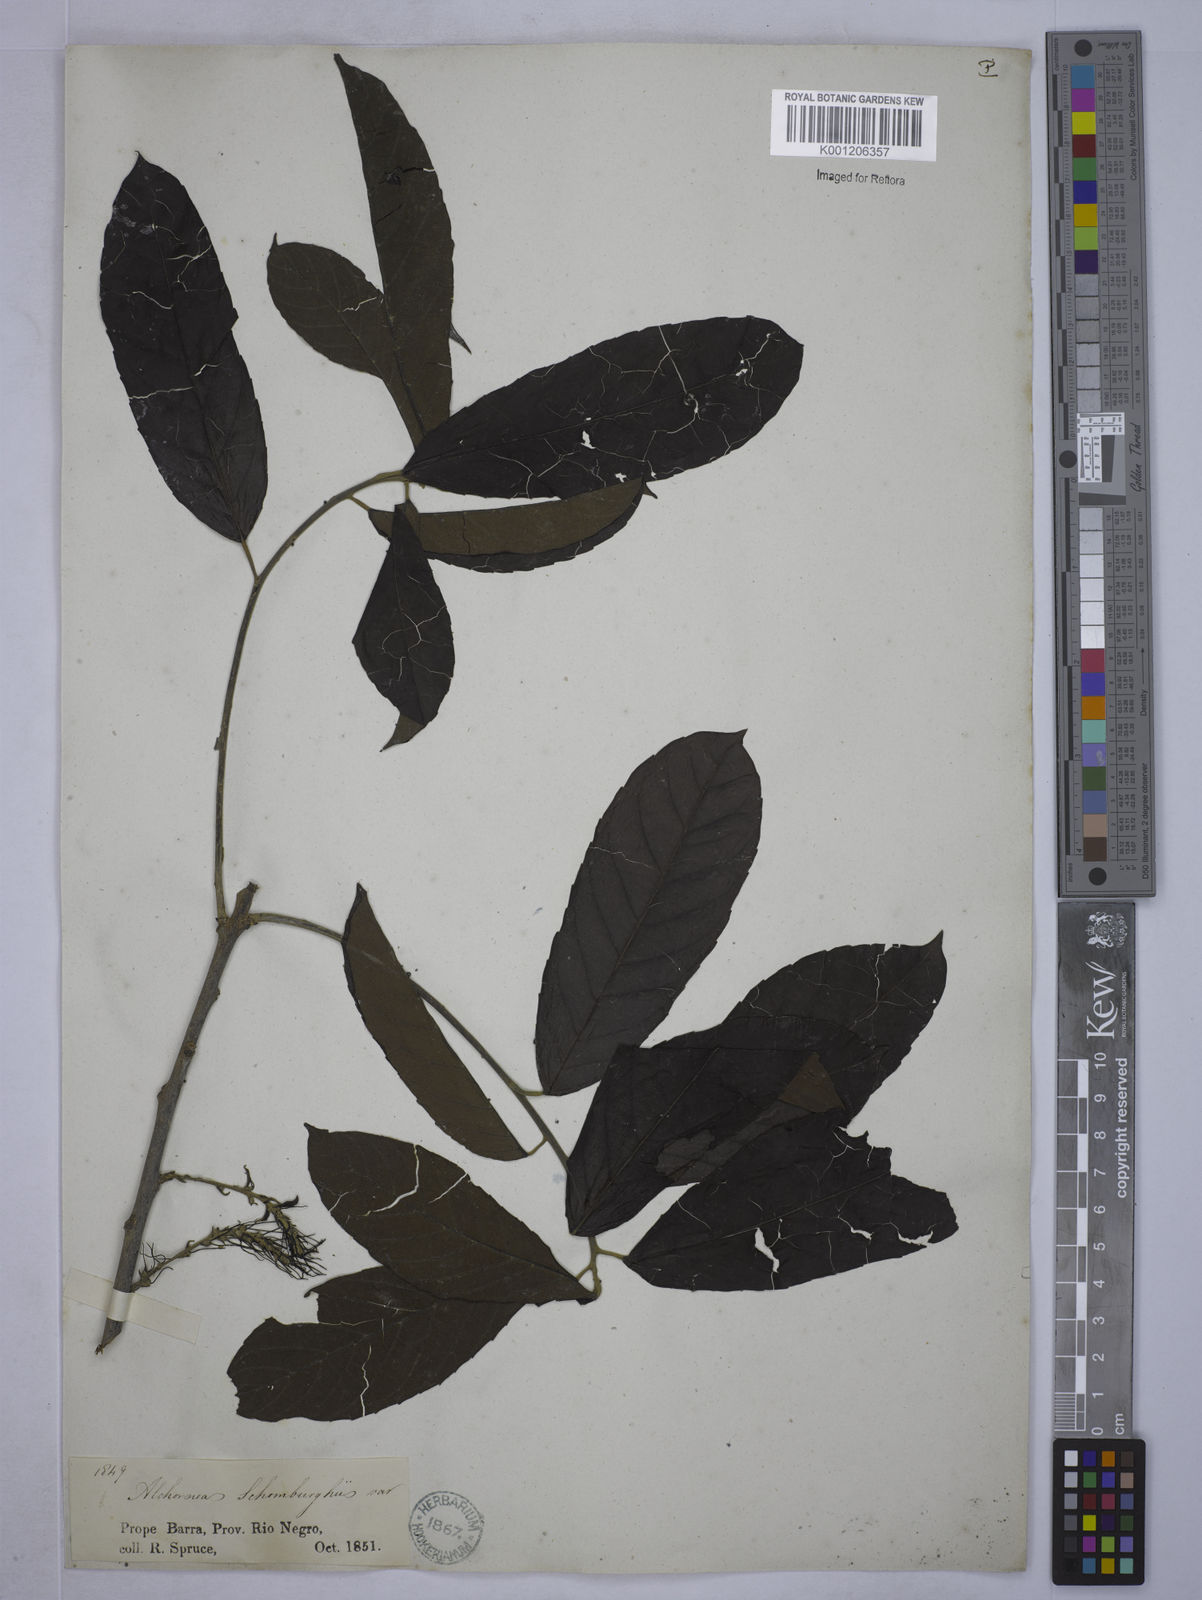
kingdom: Plantae
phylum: Tracheophyta
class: Magnoliopsida
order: Malpighiales
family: Euphorbiaceae
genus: Alchornea
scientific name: Alchornea discolor
